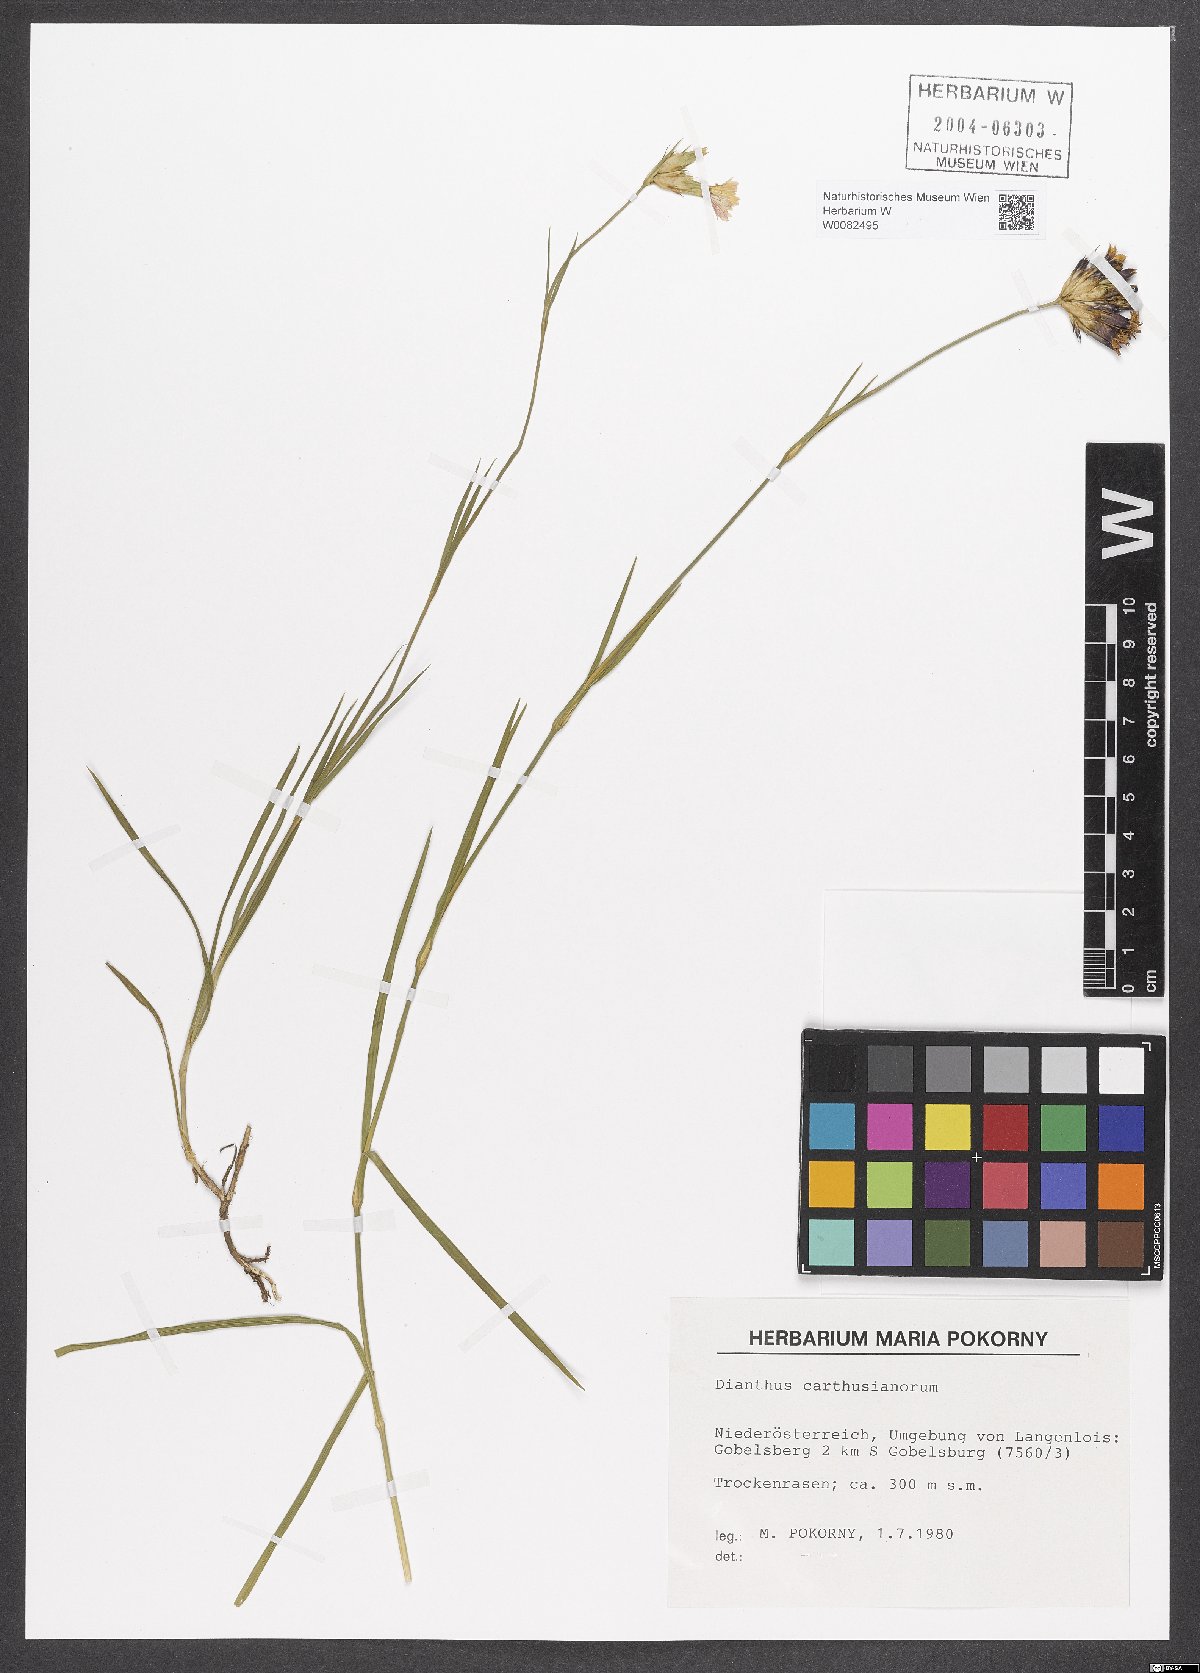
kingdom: Plantae
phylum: Tracheophyta
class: Magnoliopsida
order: Caryophyllales
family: Caryophyllaceae
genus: Dianthus
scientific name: Dianthus carthusianorum
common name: Carthusian pink
